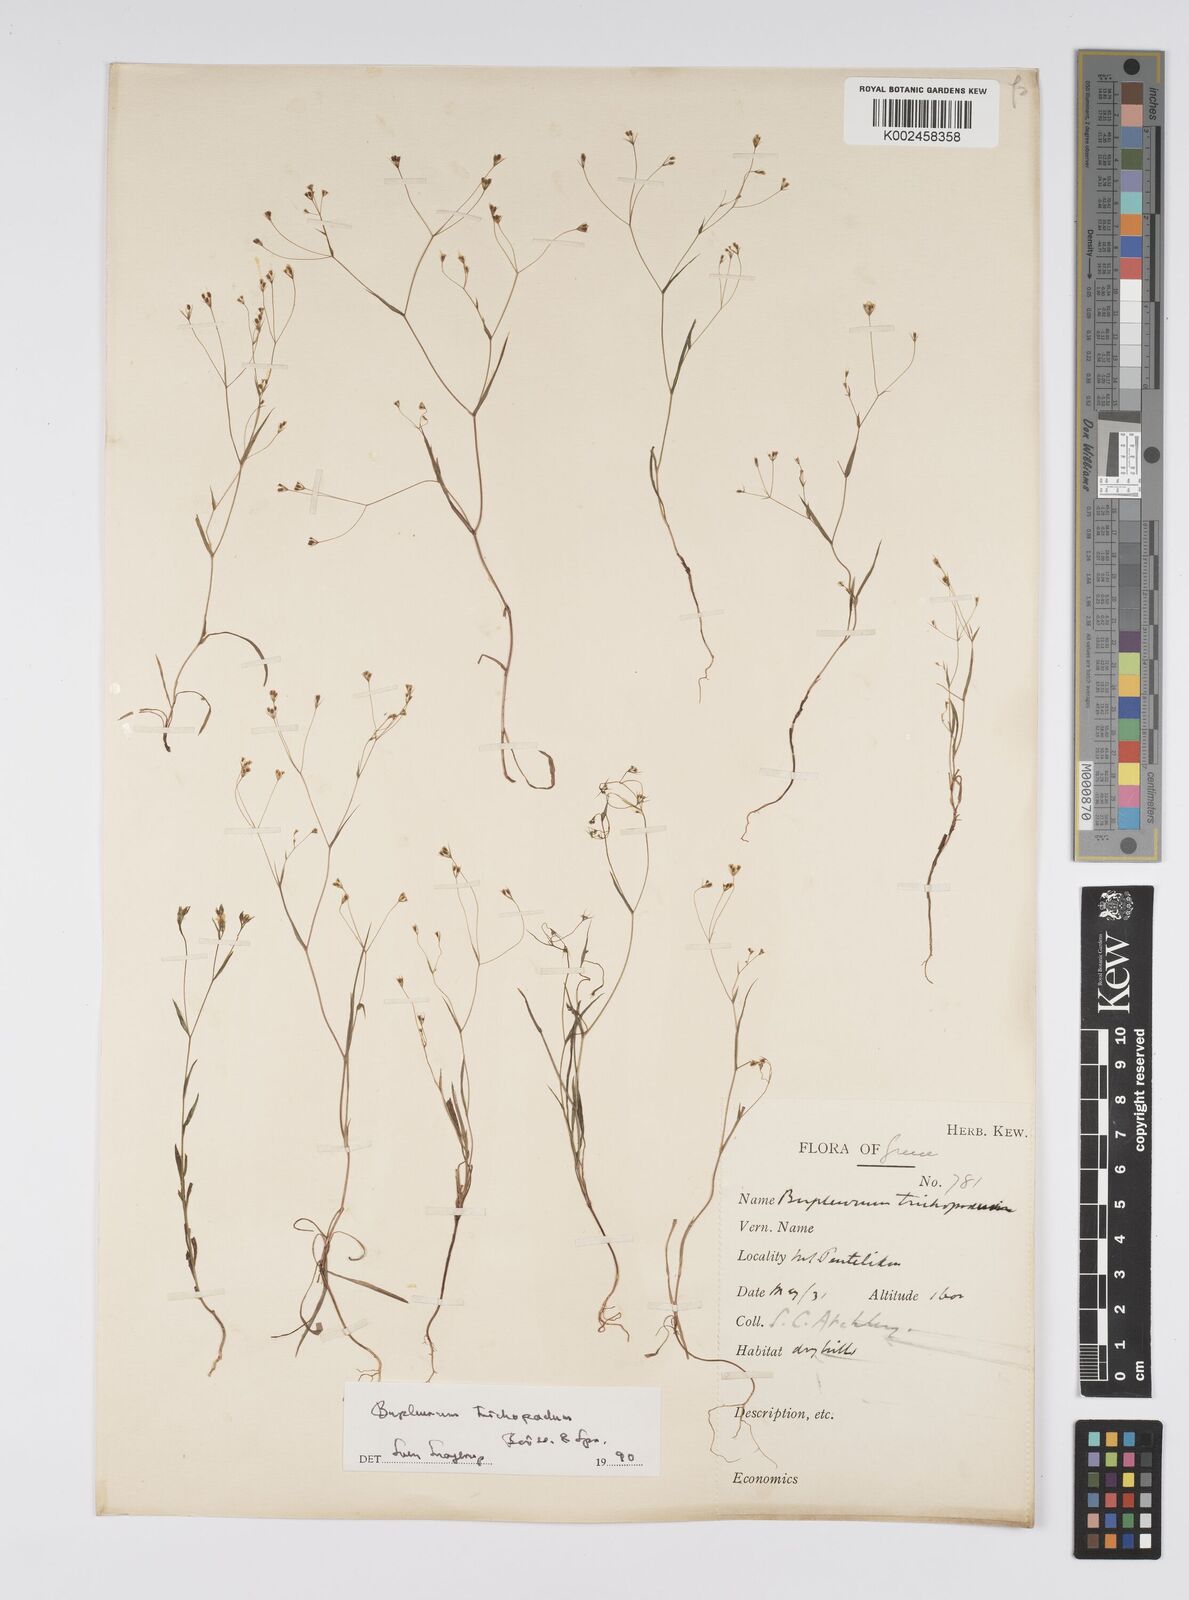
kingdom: Plantae
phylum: Tracheophyta
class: Magnoliopsida
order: Apiales
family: Apiaceae
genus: Bupleurum
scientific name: Bupleurum trichopodum
